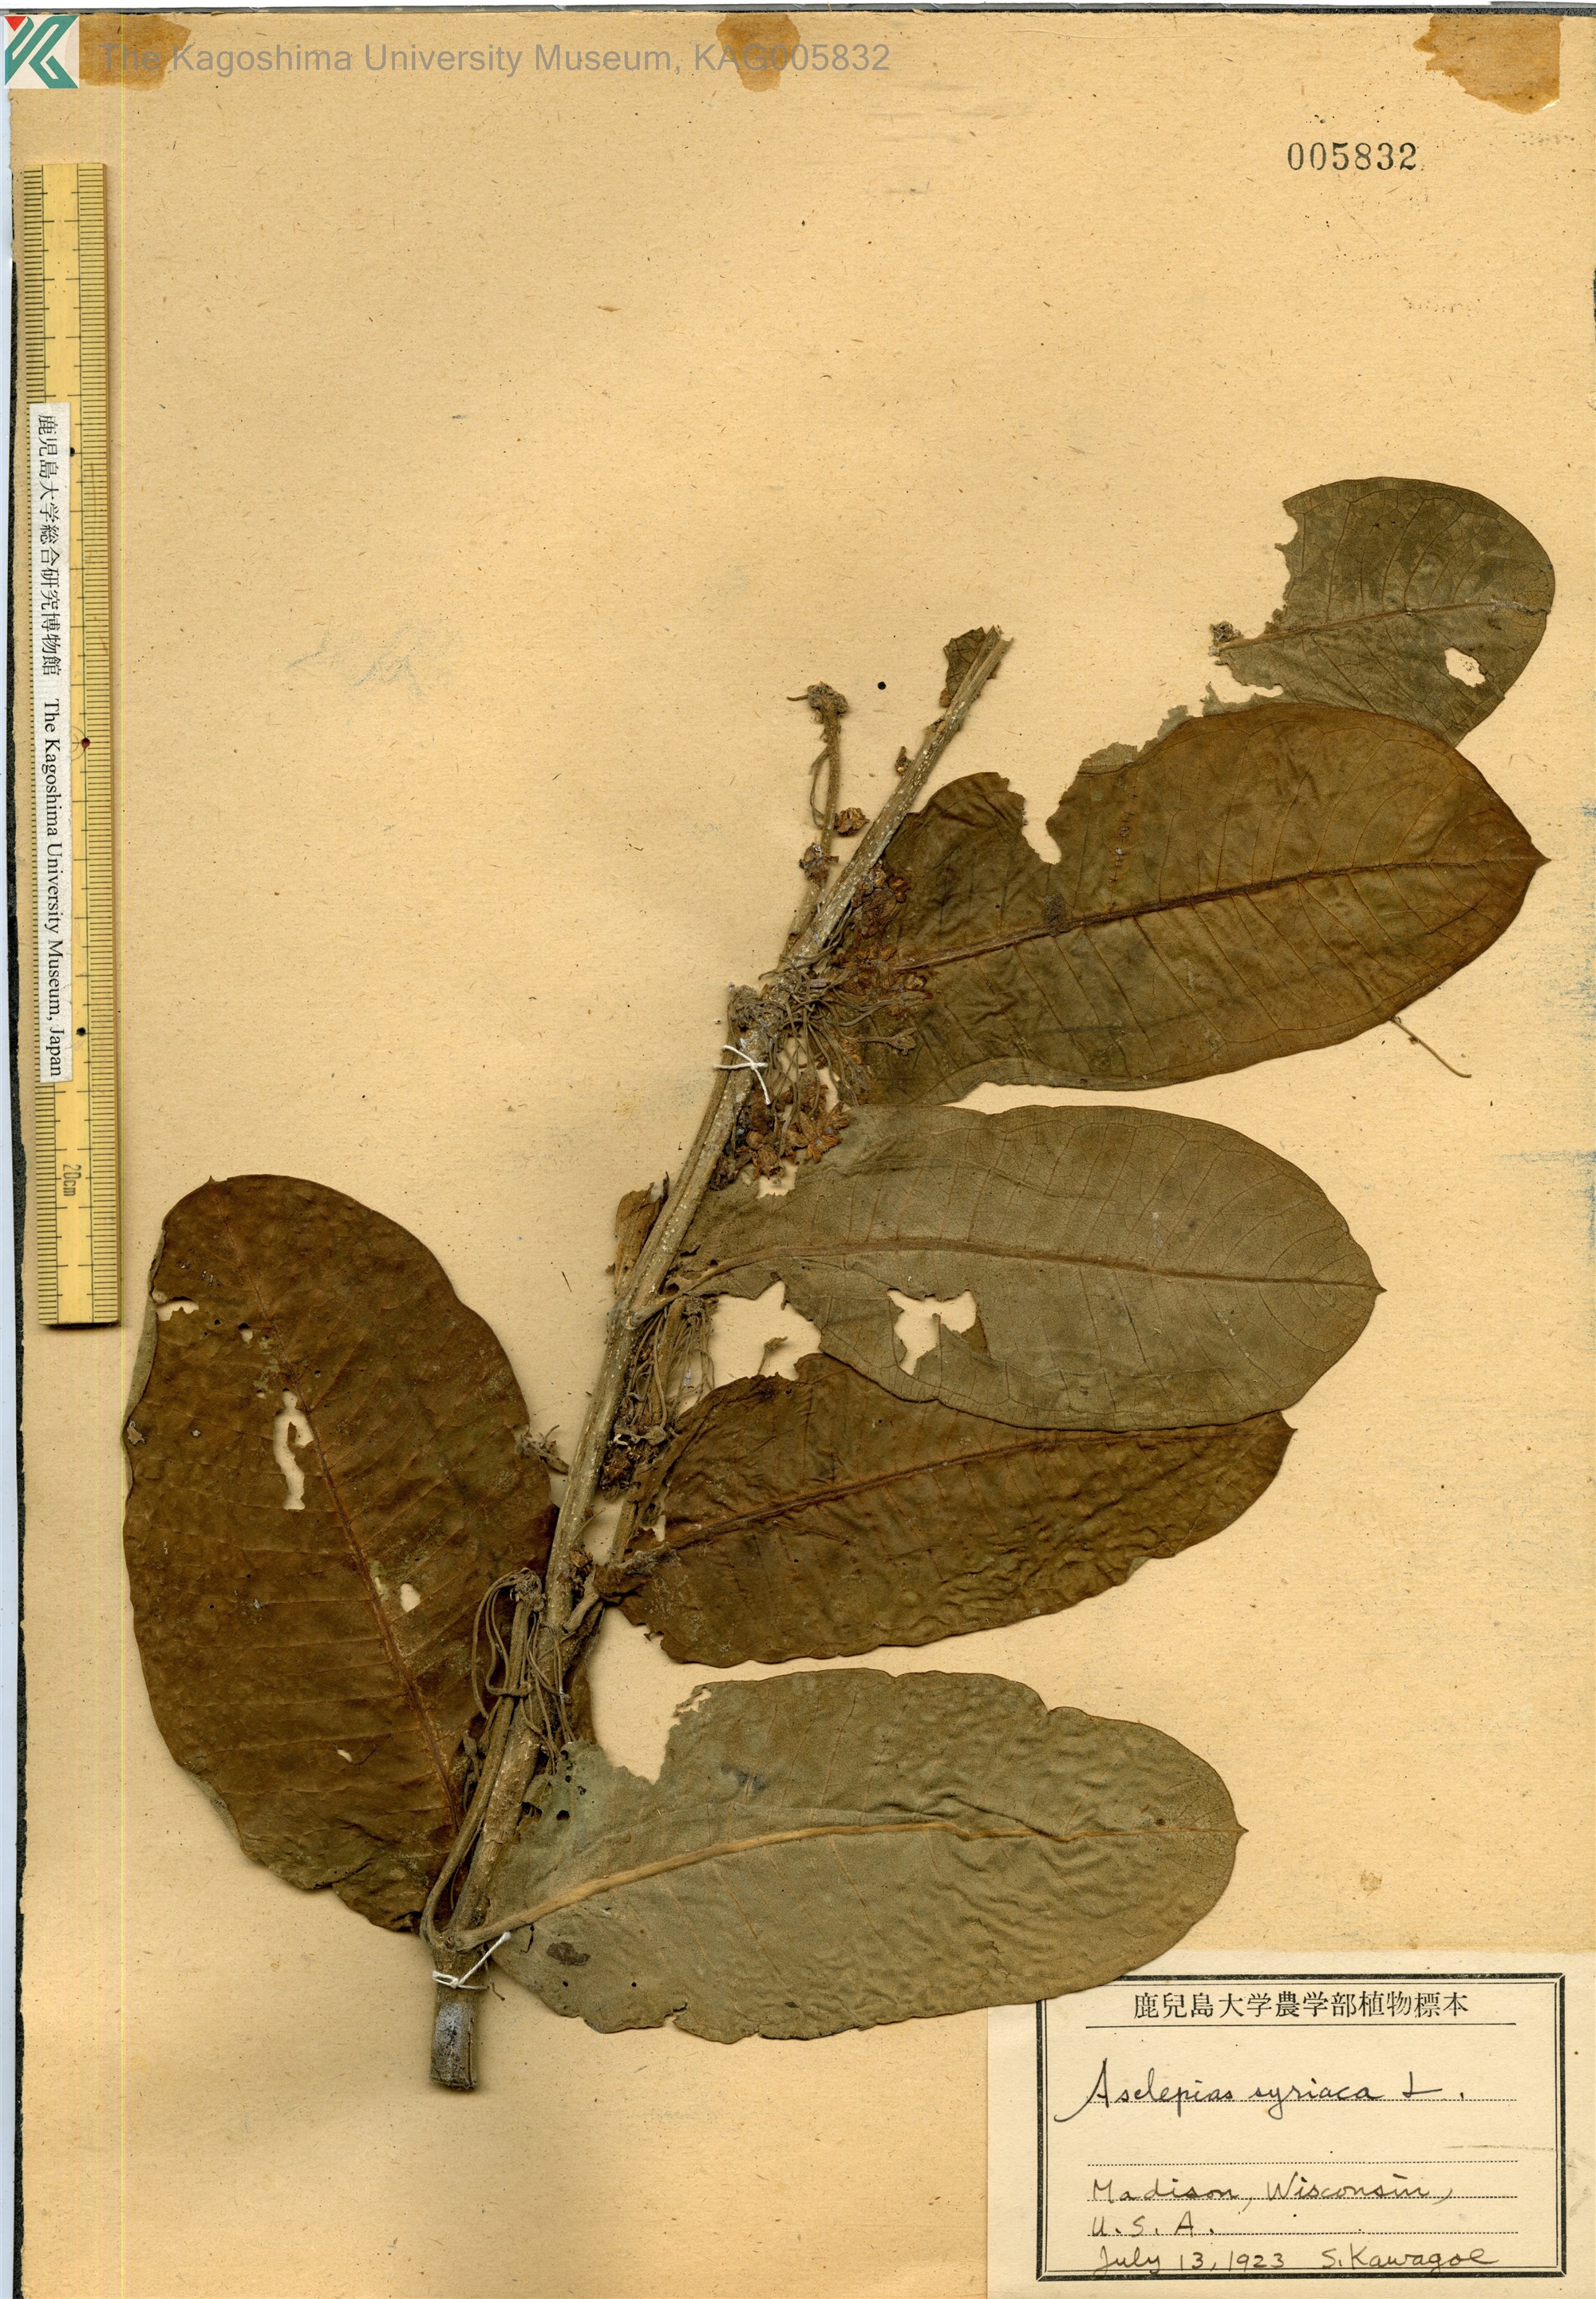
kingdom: Plantae
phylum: Tracheophyta
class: Magnoliopsida
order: Gentianales
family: Apocynaceae
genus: Asclepias
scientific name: Asclepias syriaca
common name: Common milkweed
